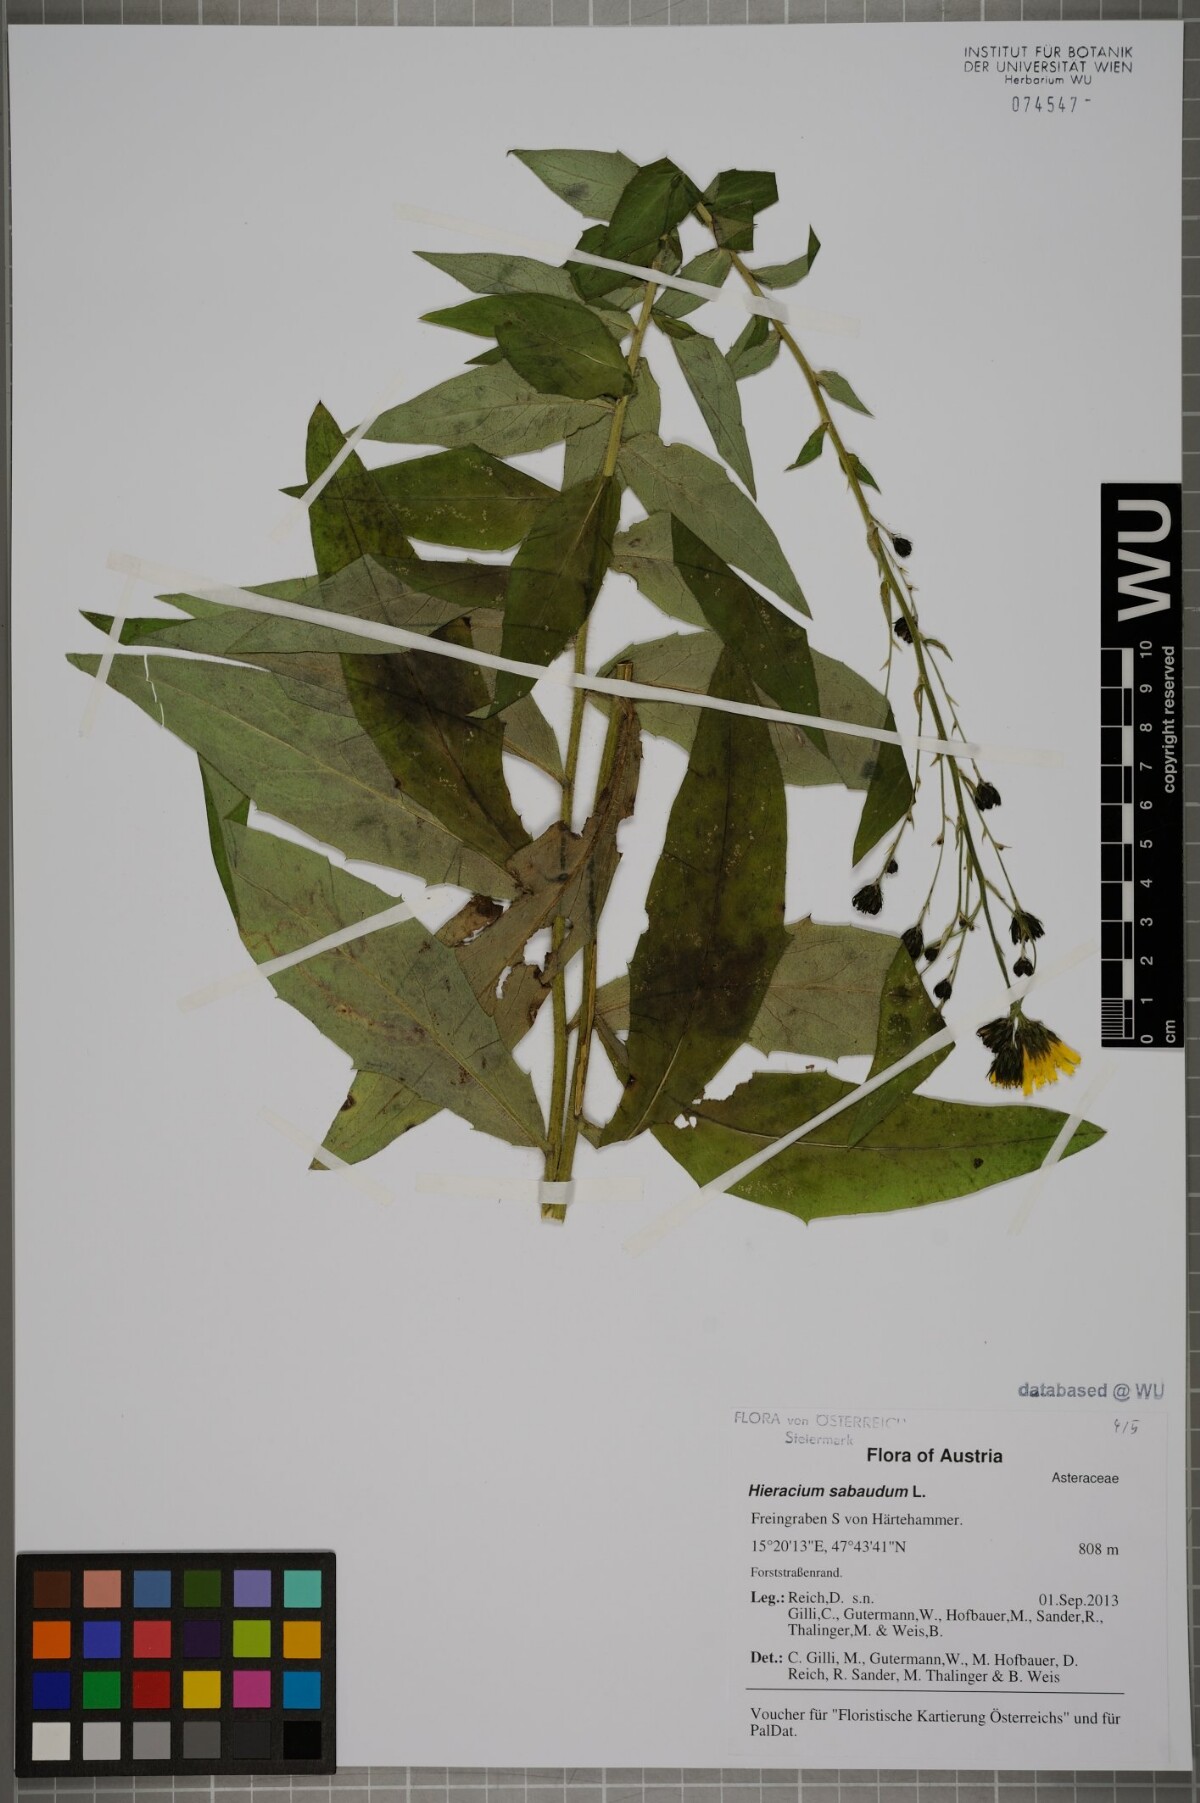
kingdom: Plantae
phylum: Tracheophyta
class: Magnoliopsida
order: Asterales
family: Asteraceae
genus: Hieracium
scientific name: Hieracium sabaudum
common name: New england hawkweed
